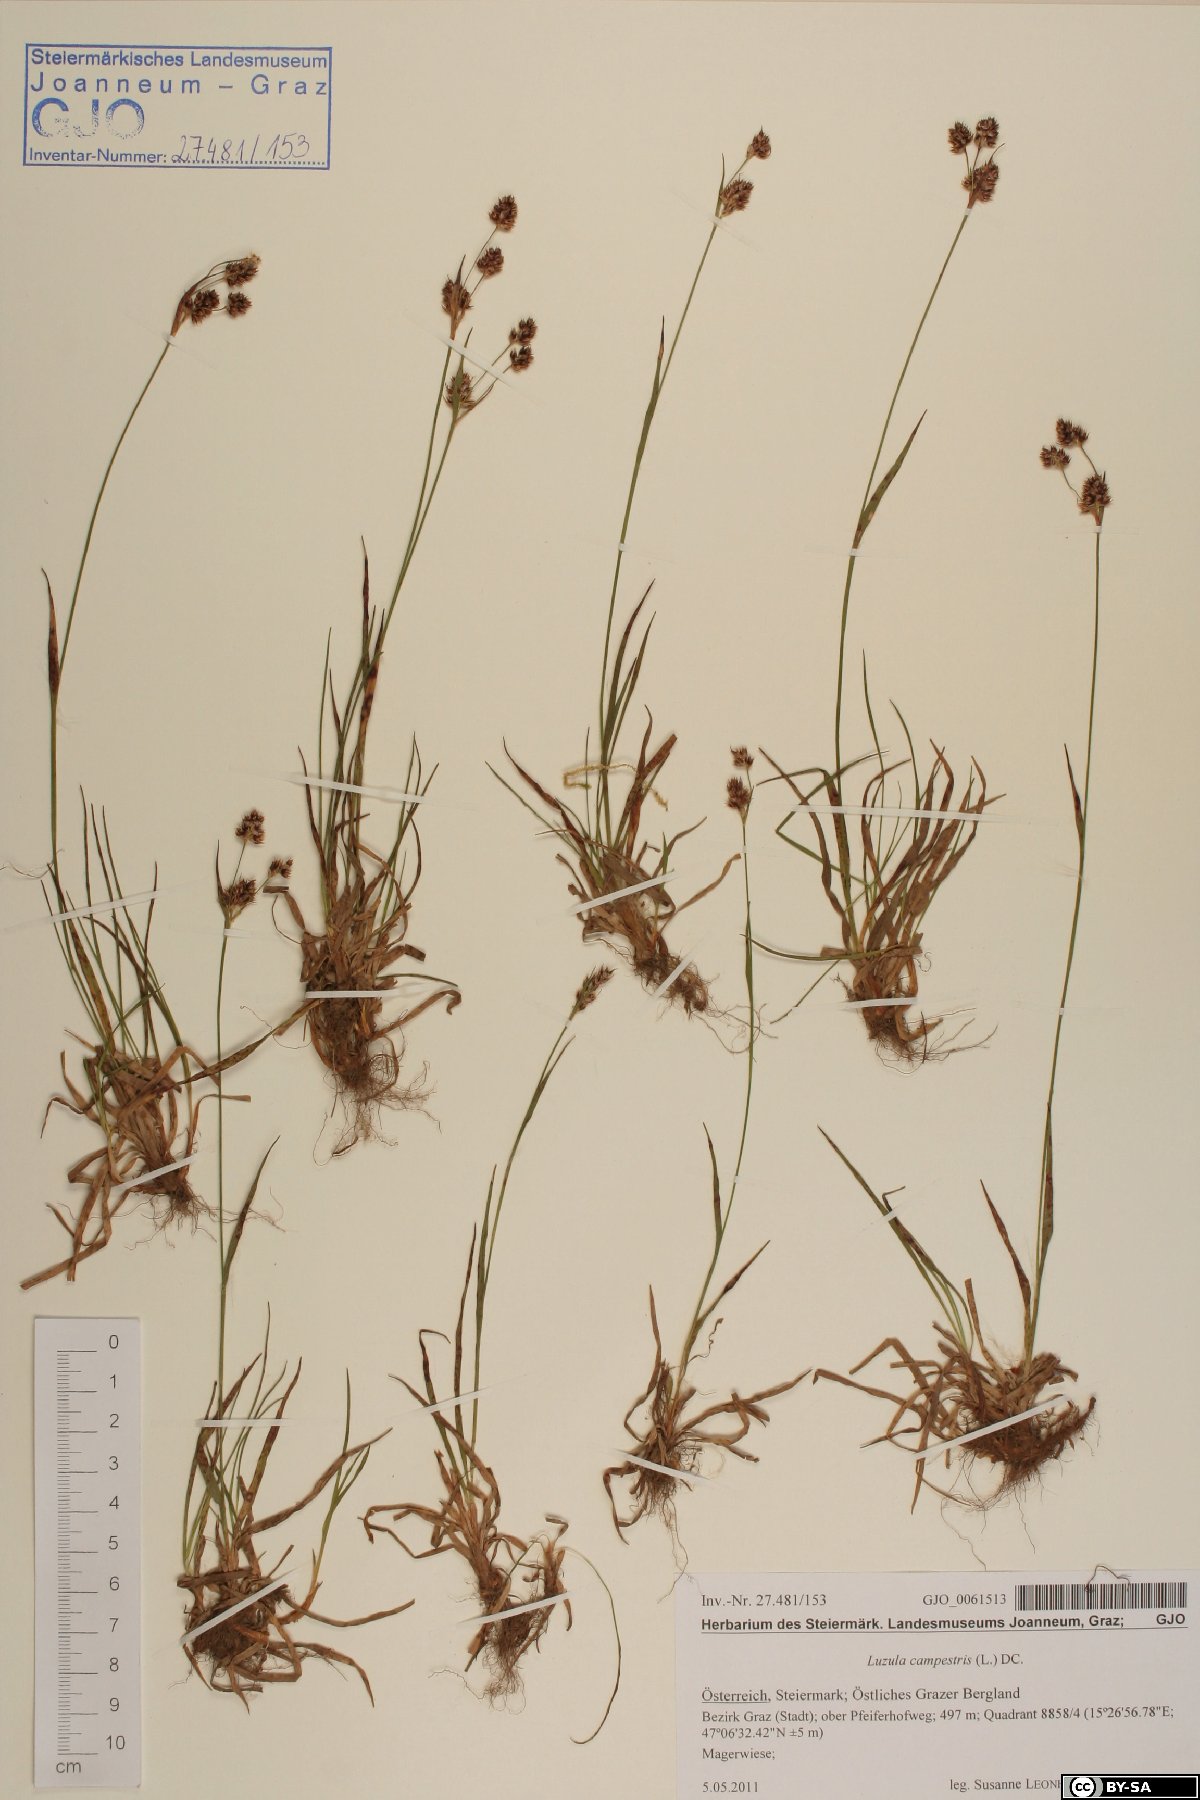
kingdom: Plantae
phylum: Tracheophyta
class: Liliopsida
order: Poales
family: Juncaceae
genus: Luzula
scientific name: Luzula campestris
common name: Field wood-rush
